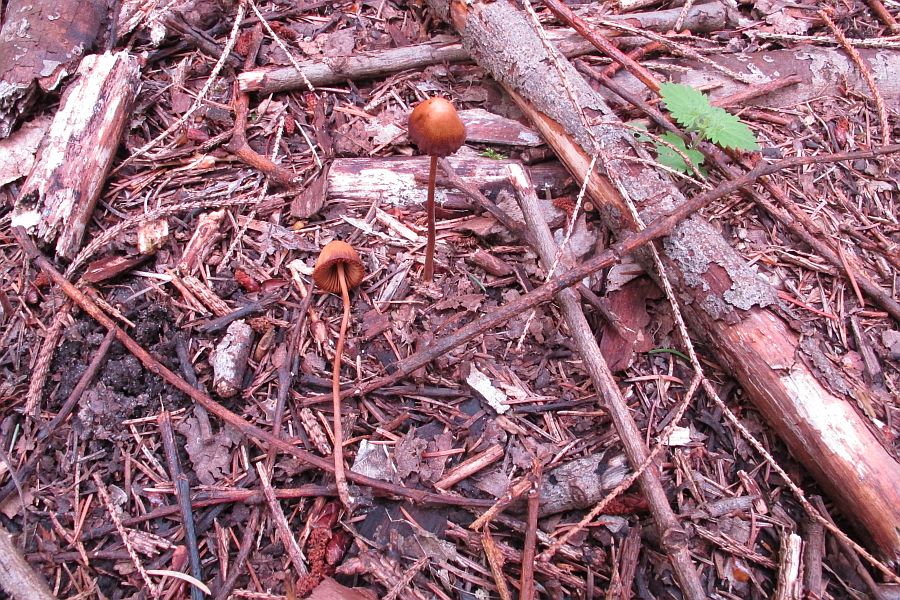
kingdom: Fungi
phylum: Basidiomycota
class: Agaricomycetes
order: Agaricales
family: Bolbitiaceae
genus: Conocybe
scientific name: Conocybe subpubescens
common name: krat-keglehat
